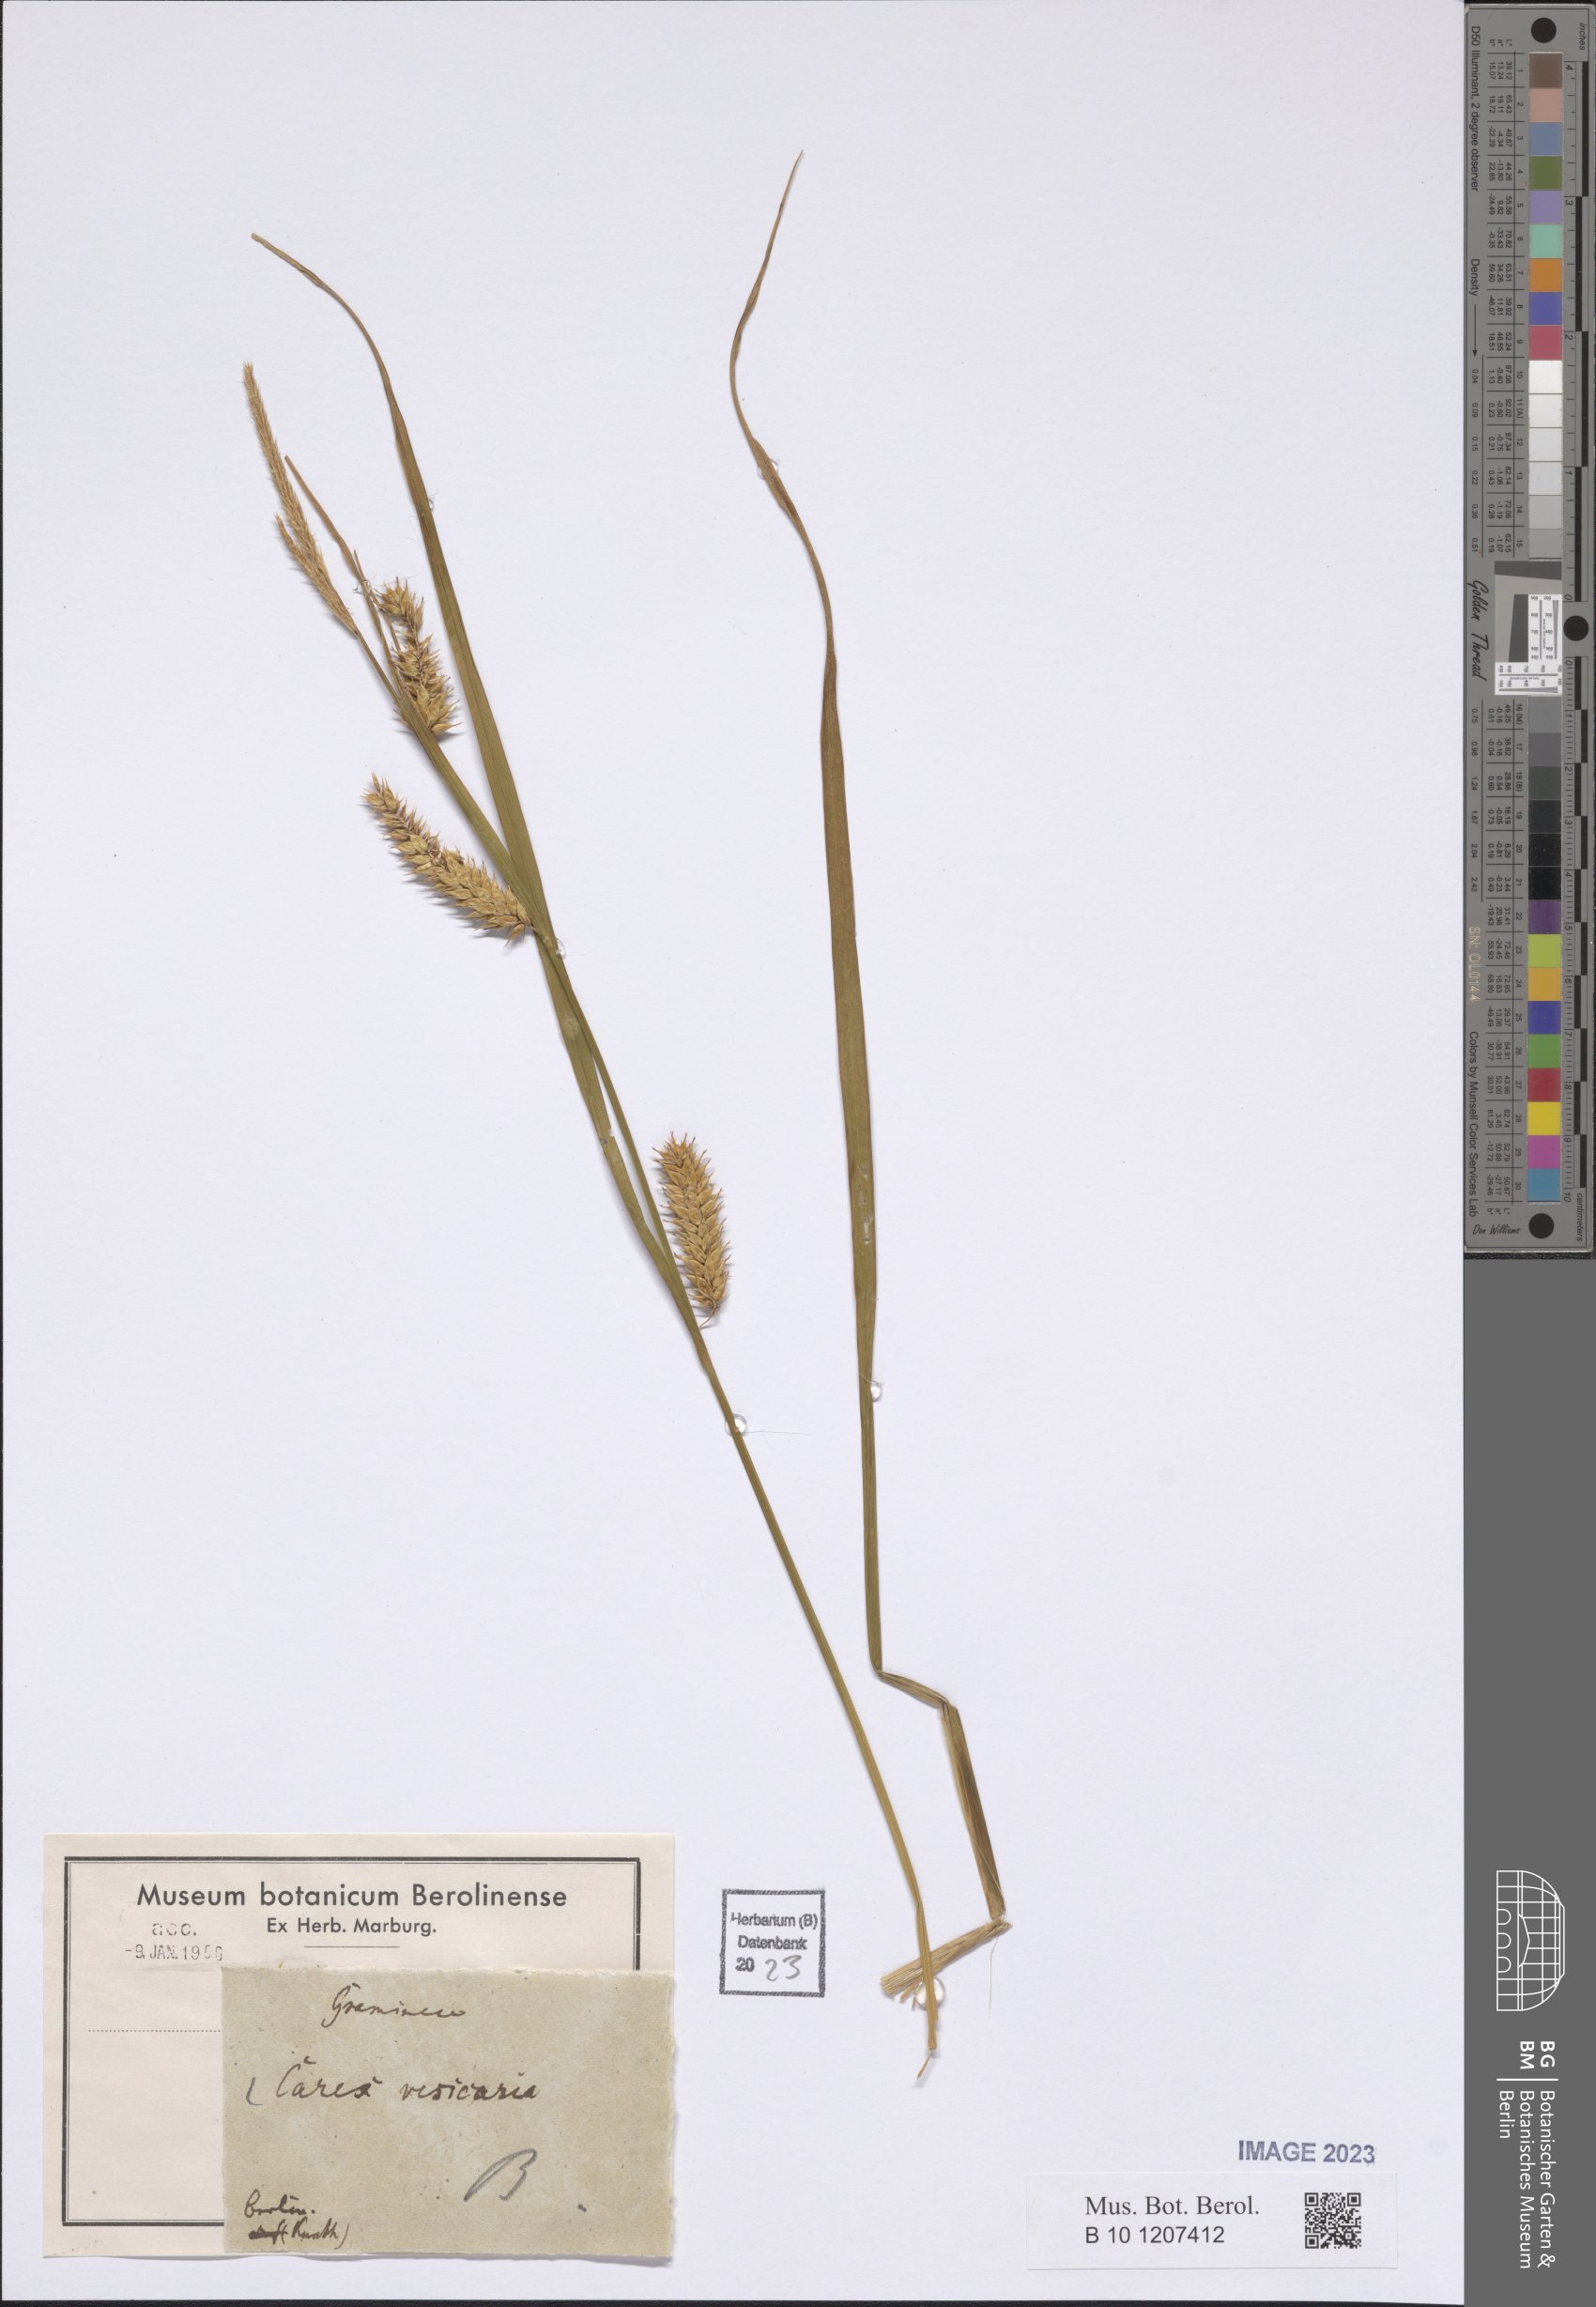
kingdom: Plantae
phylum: Tracheophyta
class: Liliopsida
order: Poales
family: Cyperaceae
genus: Carex
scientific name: Carex vesicaria
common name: Bladder-sedge
